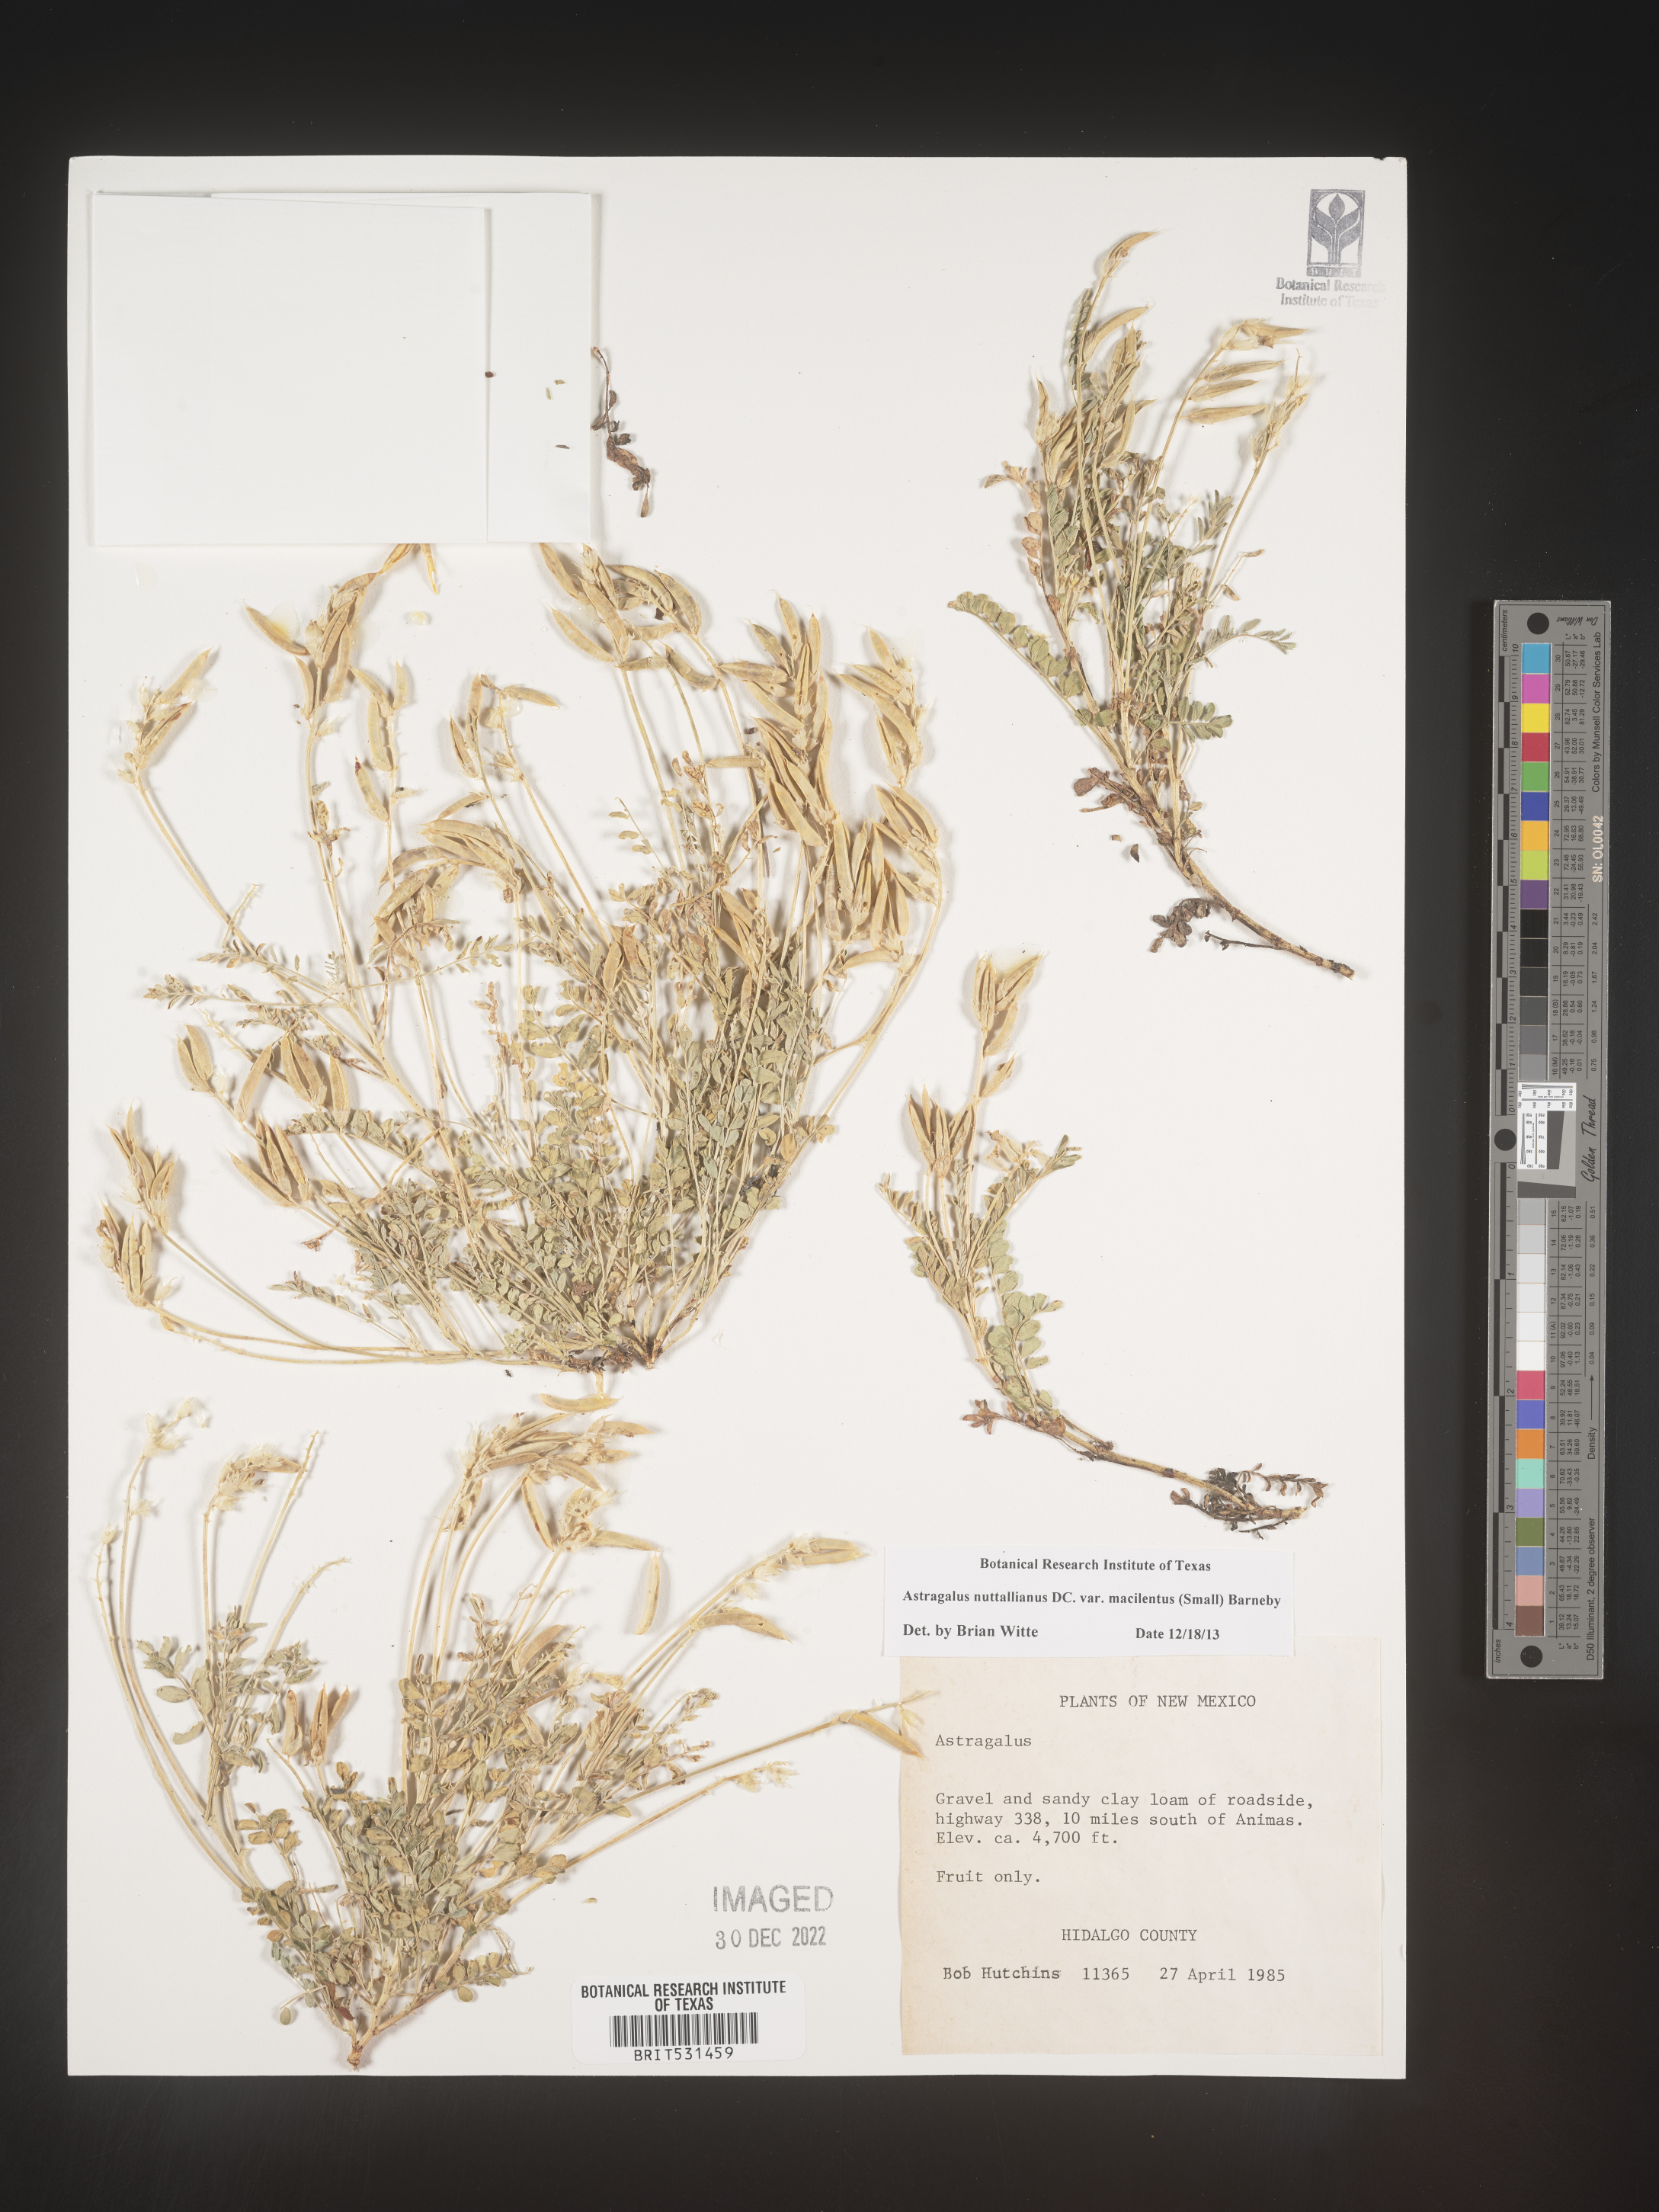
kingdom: Plantae
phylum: Tracheophyta
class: Magnoliopsida
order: Fabales
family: Fabaceae
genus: Astragalus
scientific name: Astragalus nuttallianus
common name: Smallflowered milkvetch
